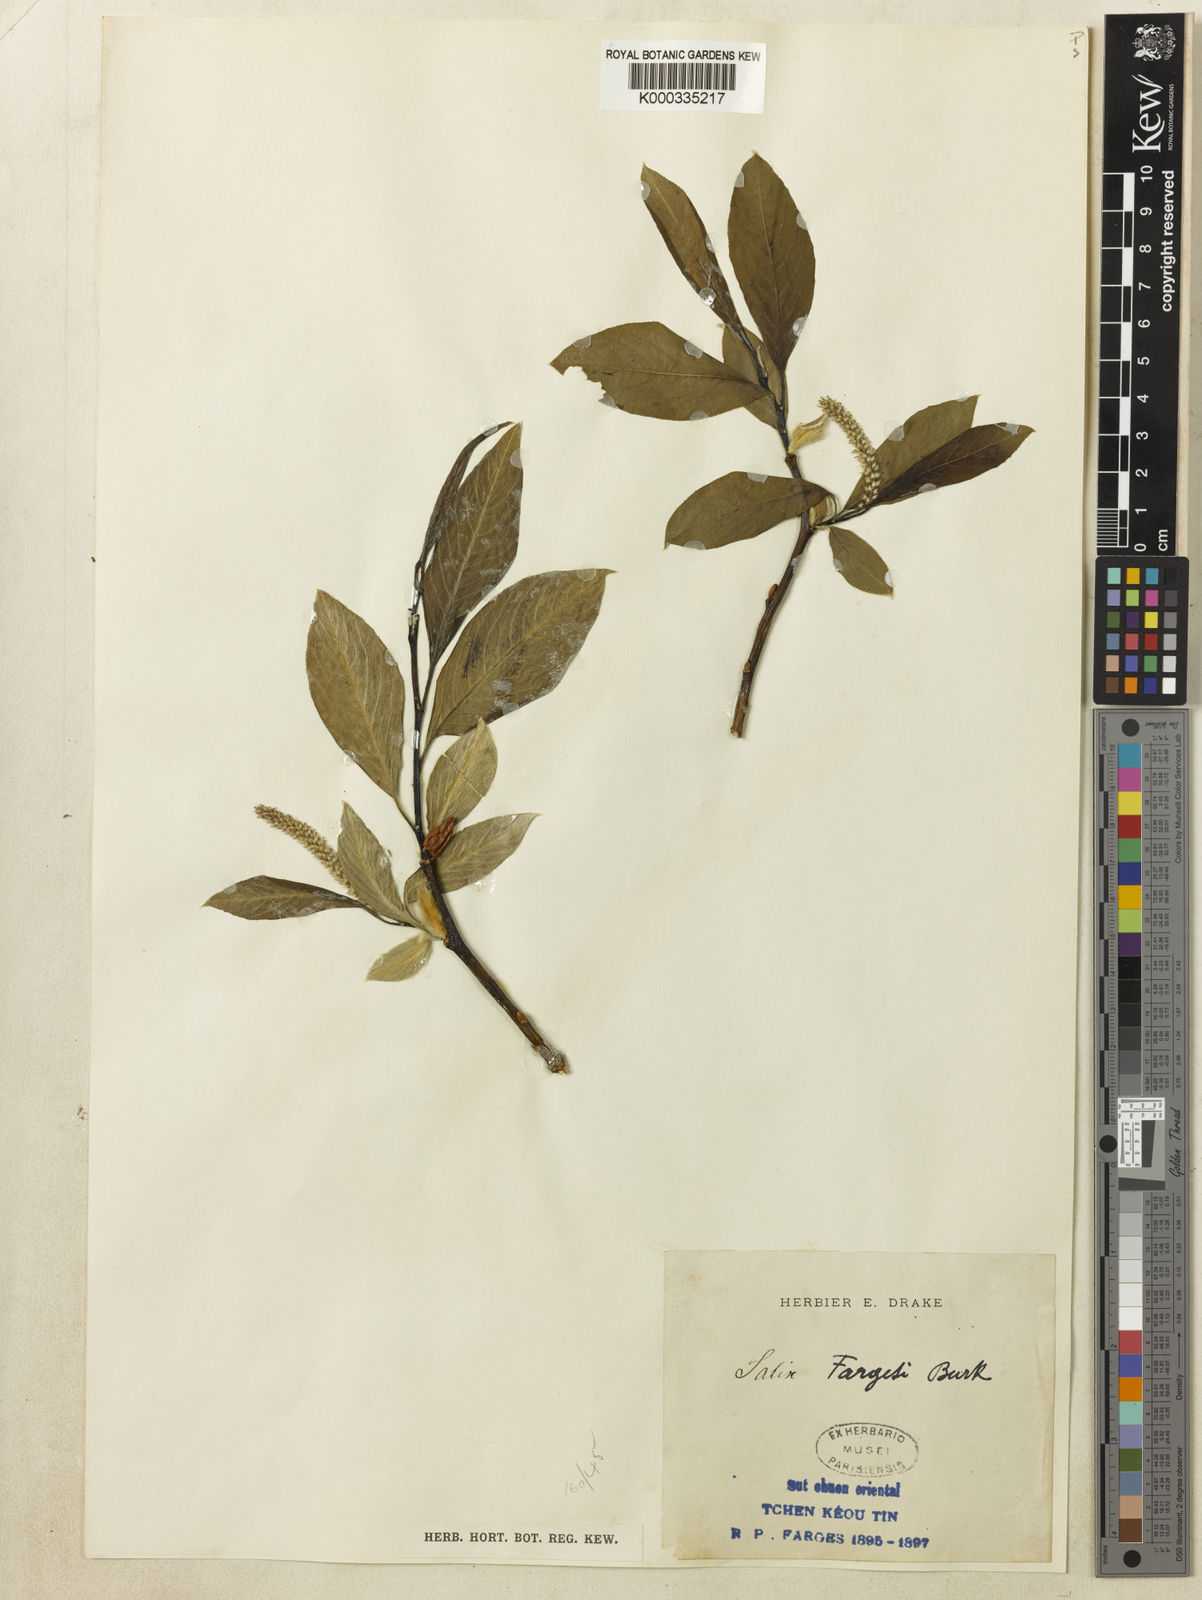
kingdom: Plantae
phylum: Tracheophyta
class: Magnoliopsida
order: Malpighiales
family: Salicaceae
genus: Salix
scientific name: Salix fargesii
